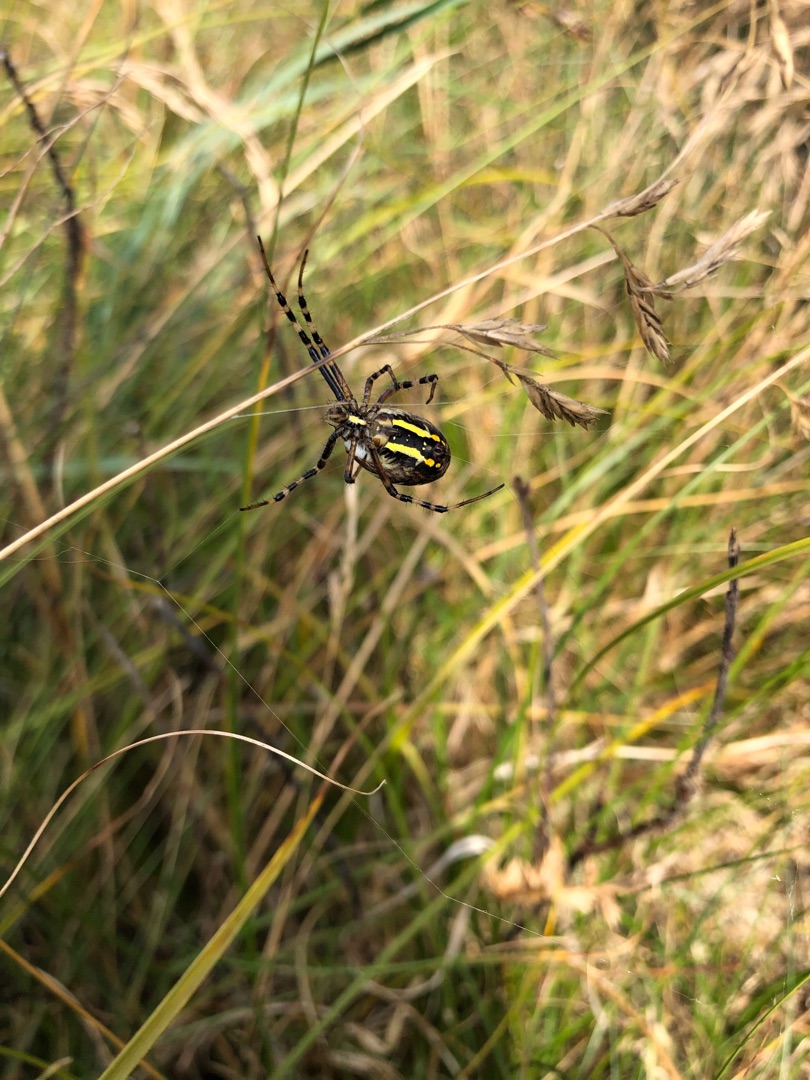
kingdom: Animalia
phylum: Arthropoda
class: Arachnida
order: Araneae
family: Araneidae
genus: Argiope
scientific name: Argiope bruennichi
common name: Hvepseedderkop
